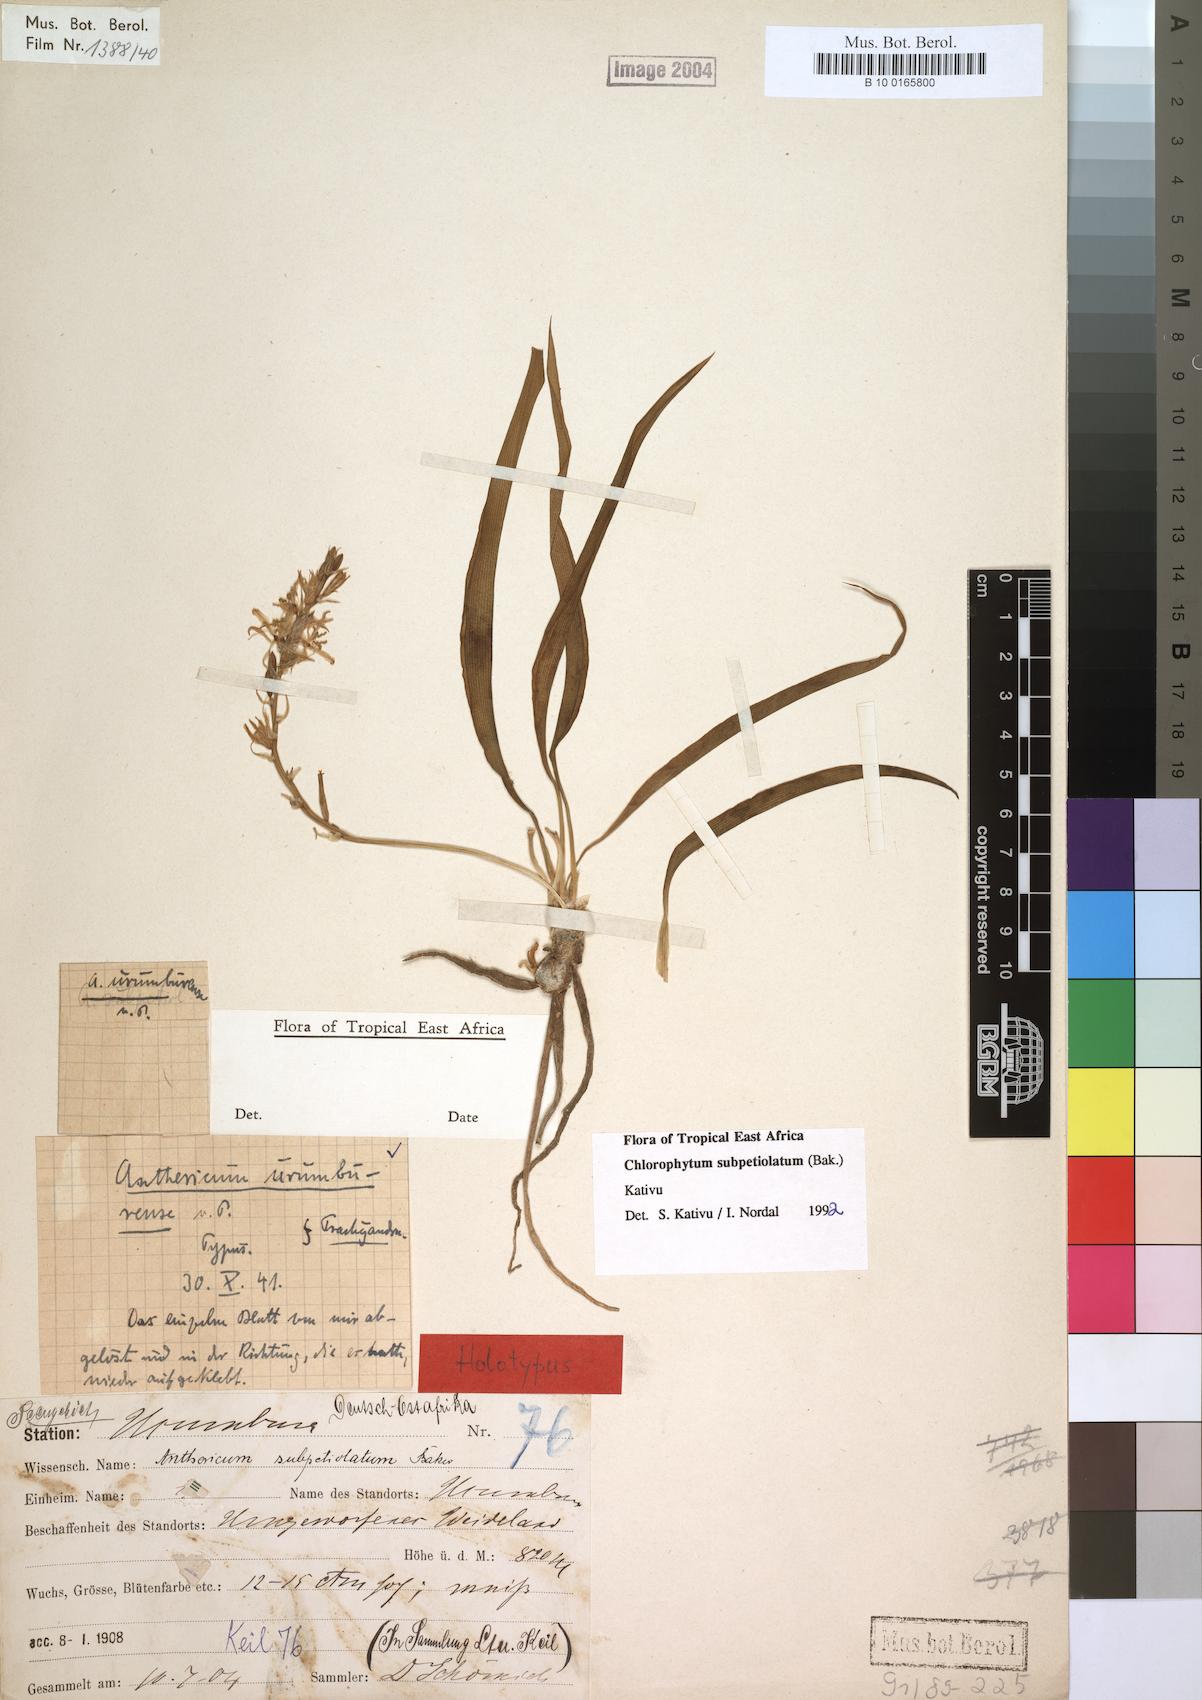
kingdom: Plantae
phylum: Tracheophyta
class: Liliopsida
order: Asparagales
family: Asparagaceae
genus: Chlorophytum
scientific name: Chlorophytum subpetiolatum
